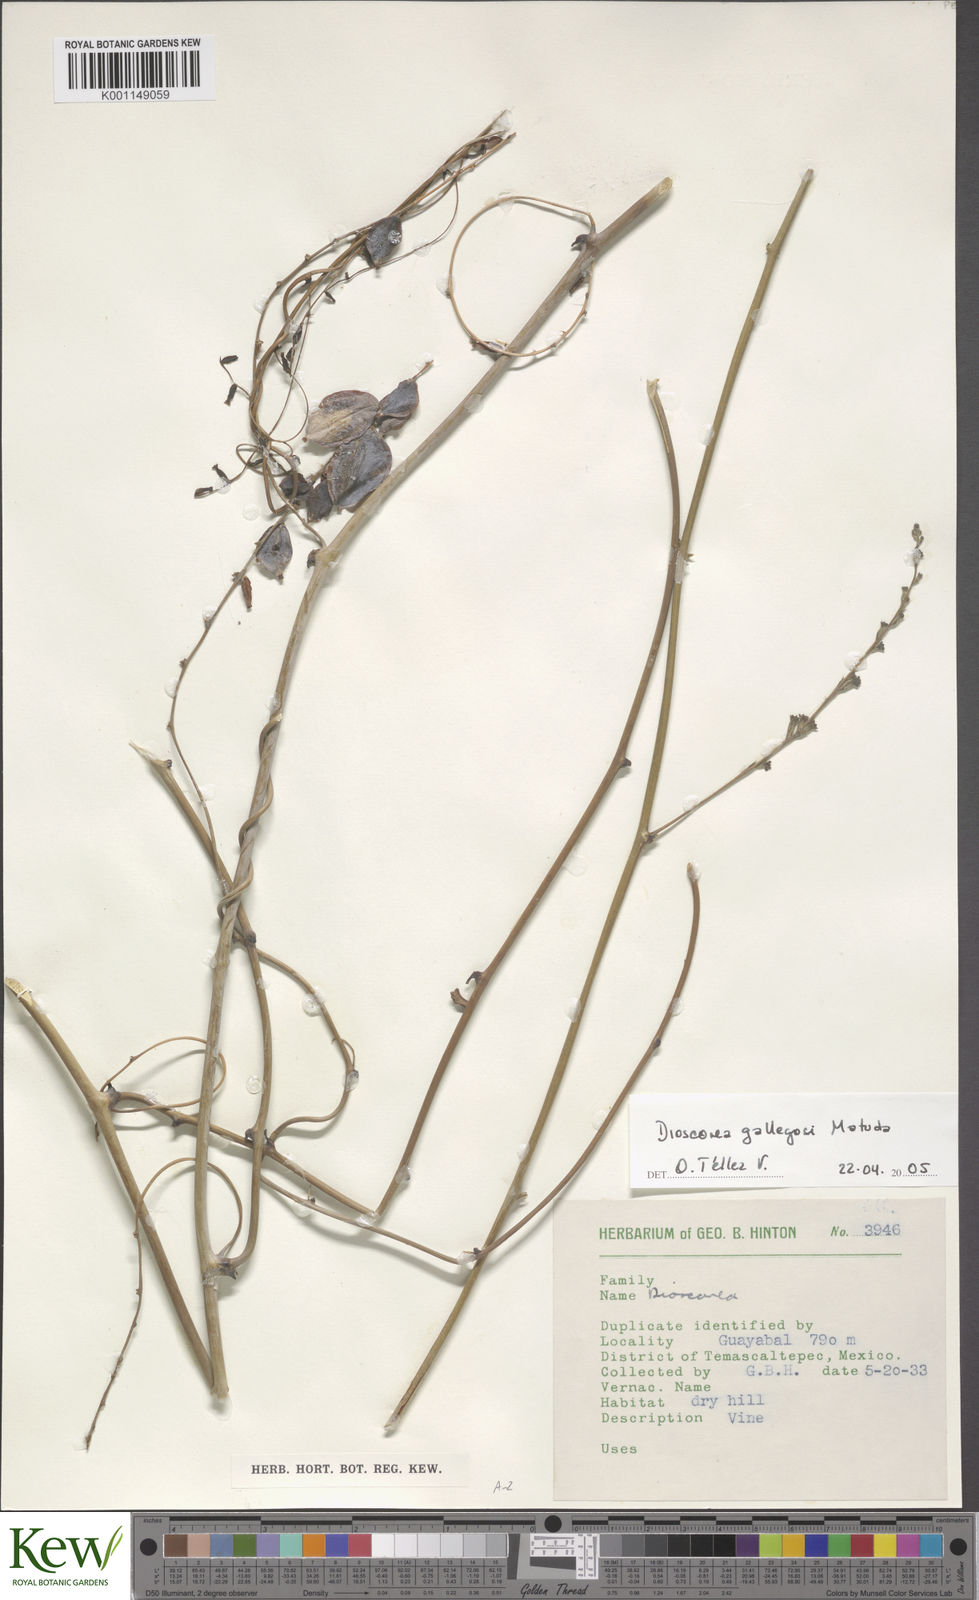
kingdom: Plantae
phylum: Tracheophyta
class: Liliopsida
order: Dioscoreales
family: Dioscoreaceae
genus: Dioscorea
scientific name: Dioscorea
